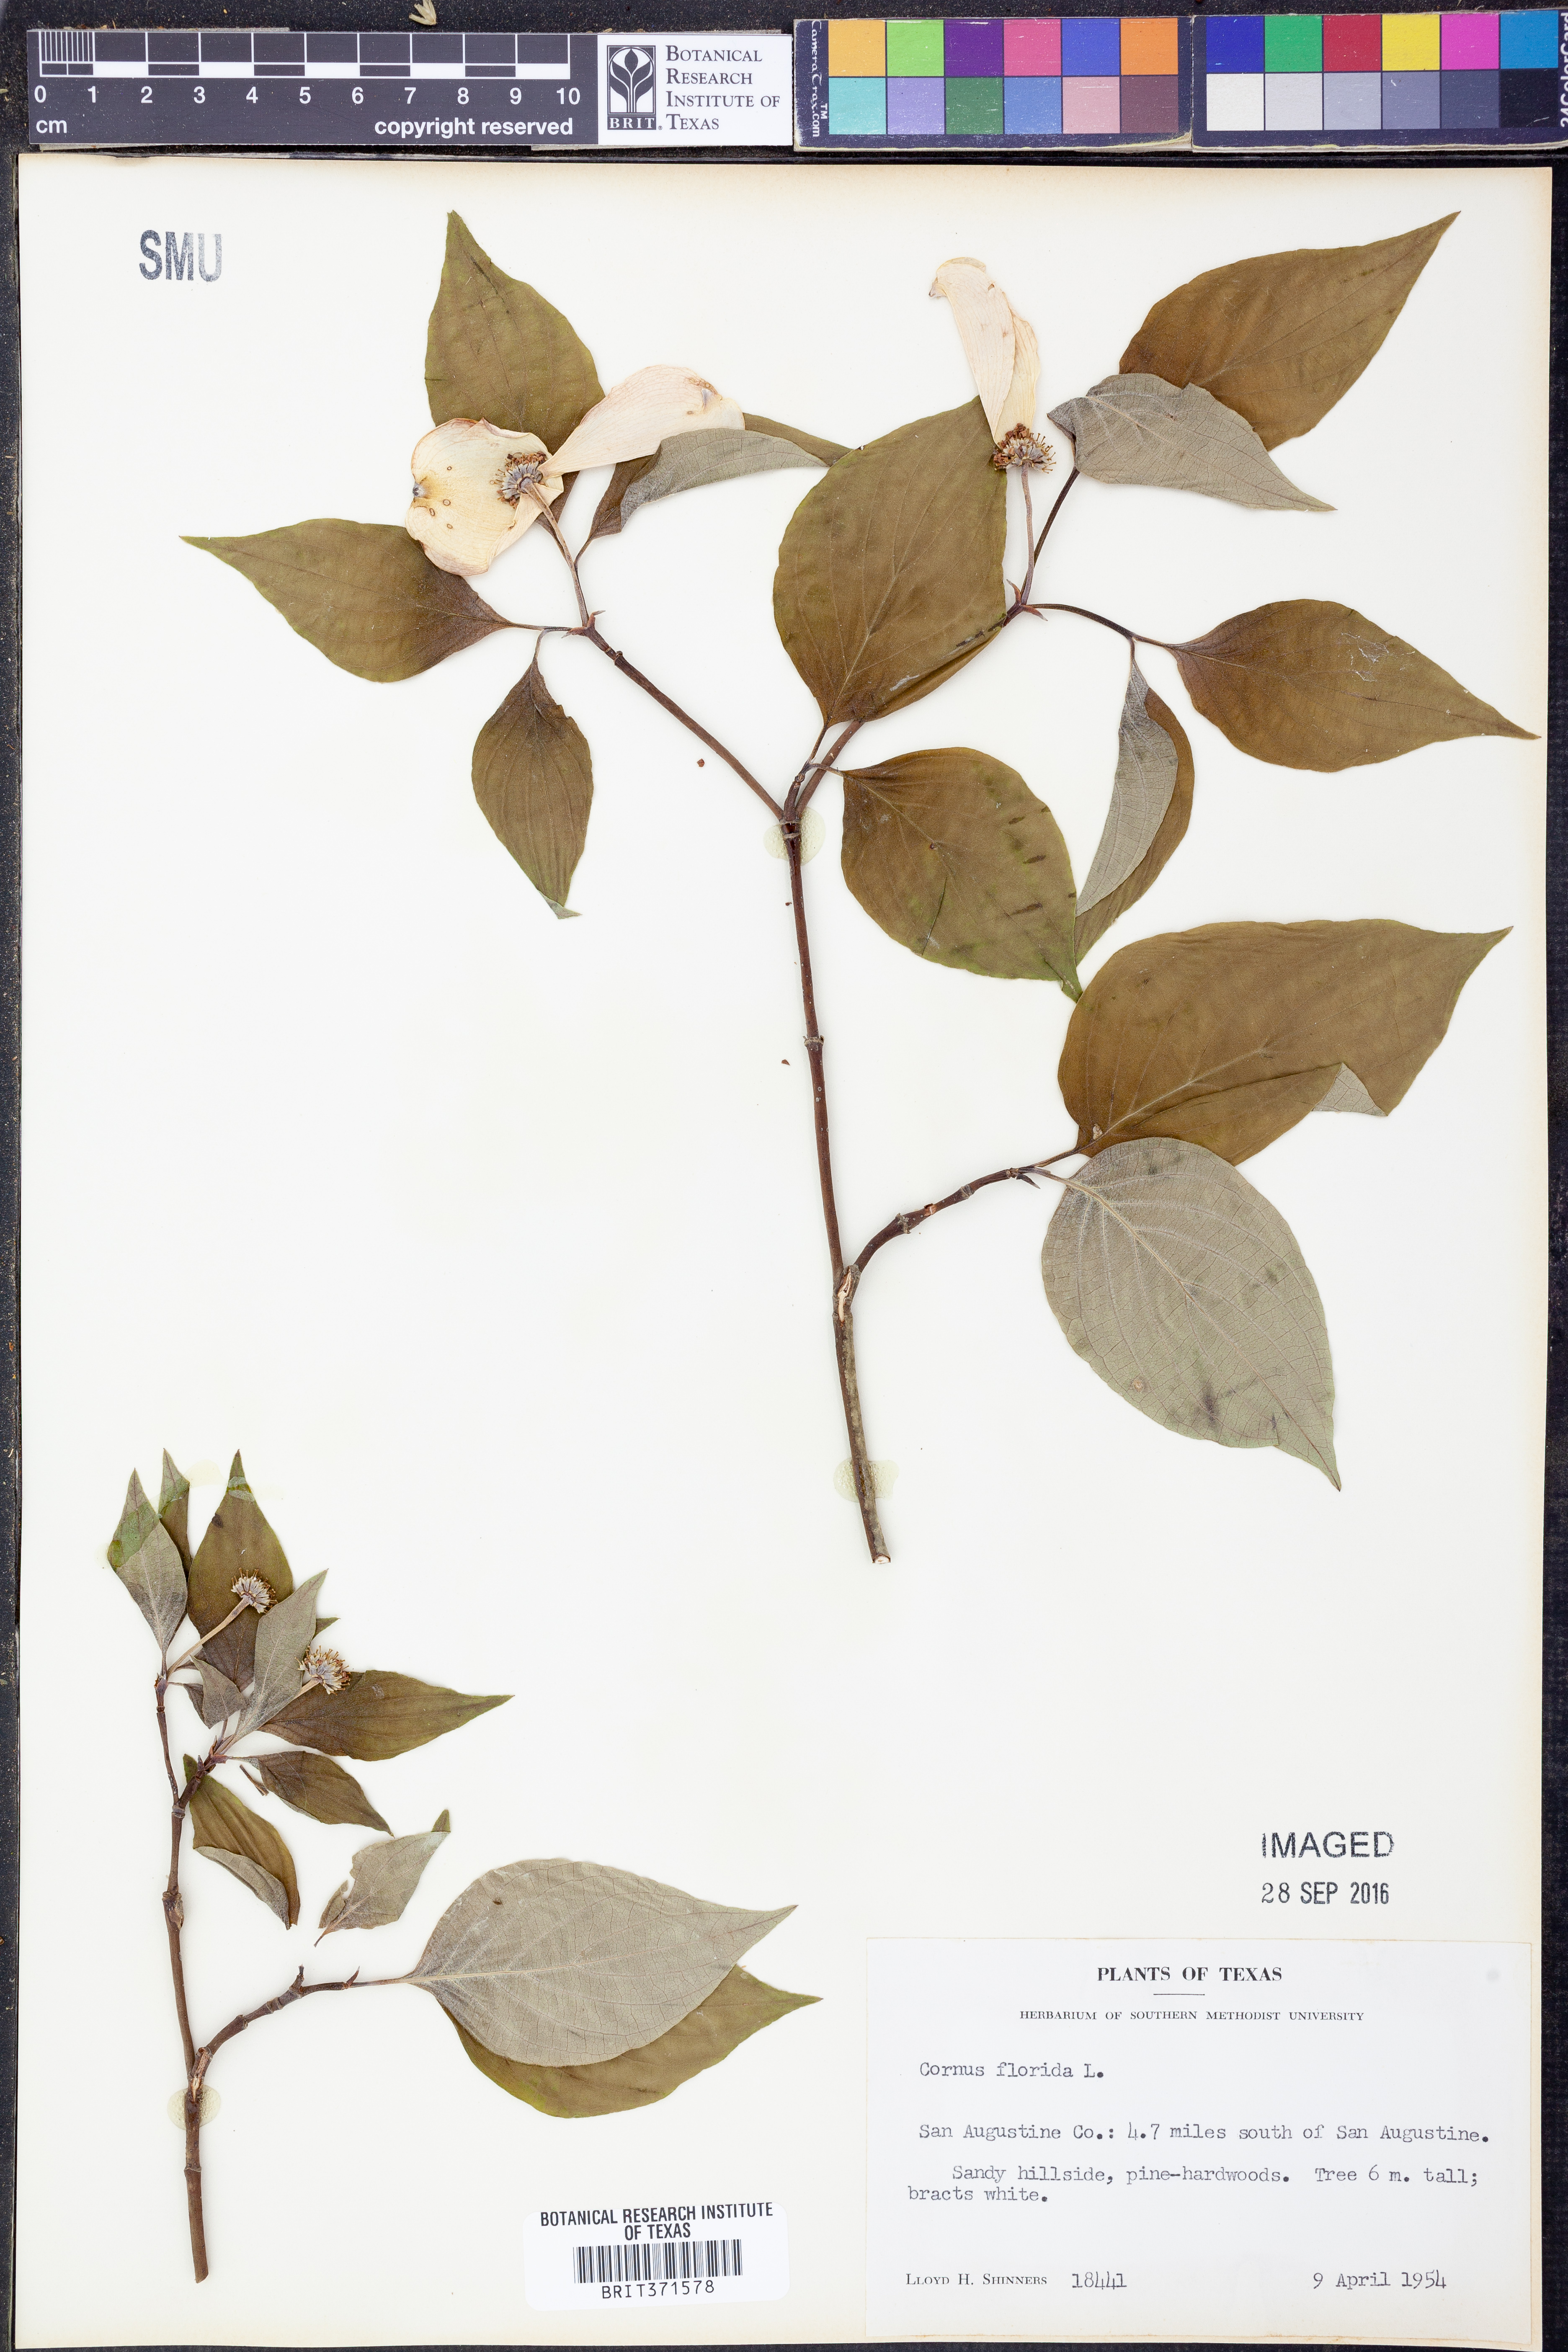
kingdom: Plantae
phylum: Tracheophyta
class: Magnoliopsida
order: Cornales
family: Cornaceae
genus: Cornus
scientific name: Cornus florida
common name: Flowering dogwood
